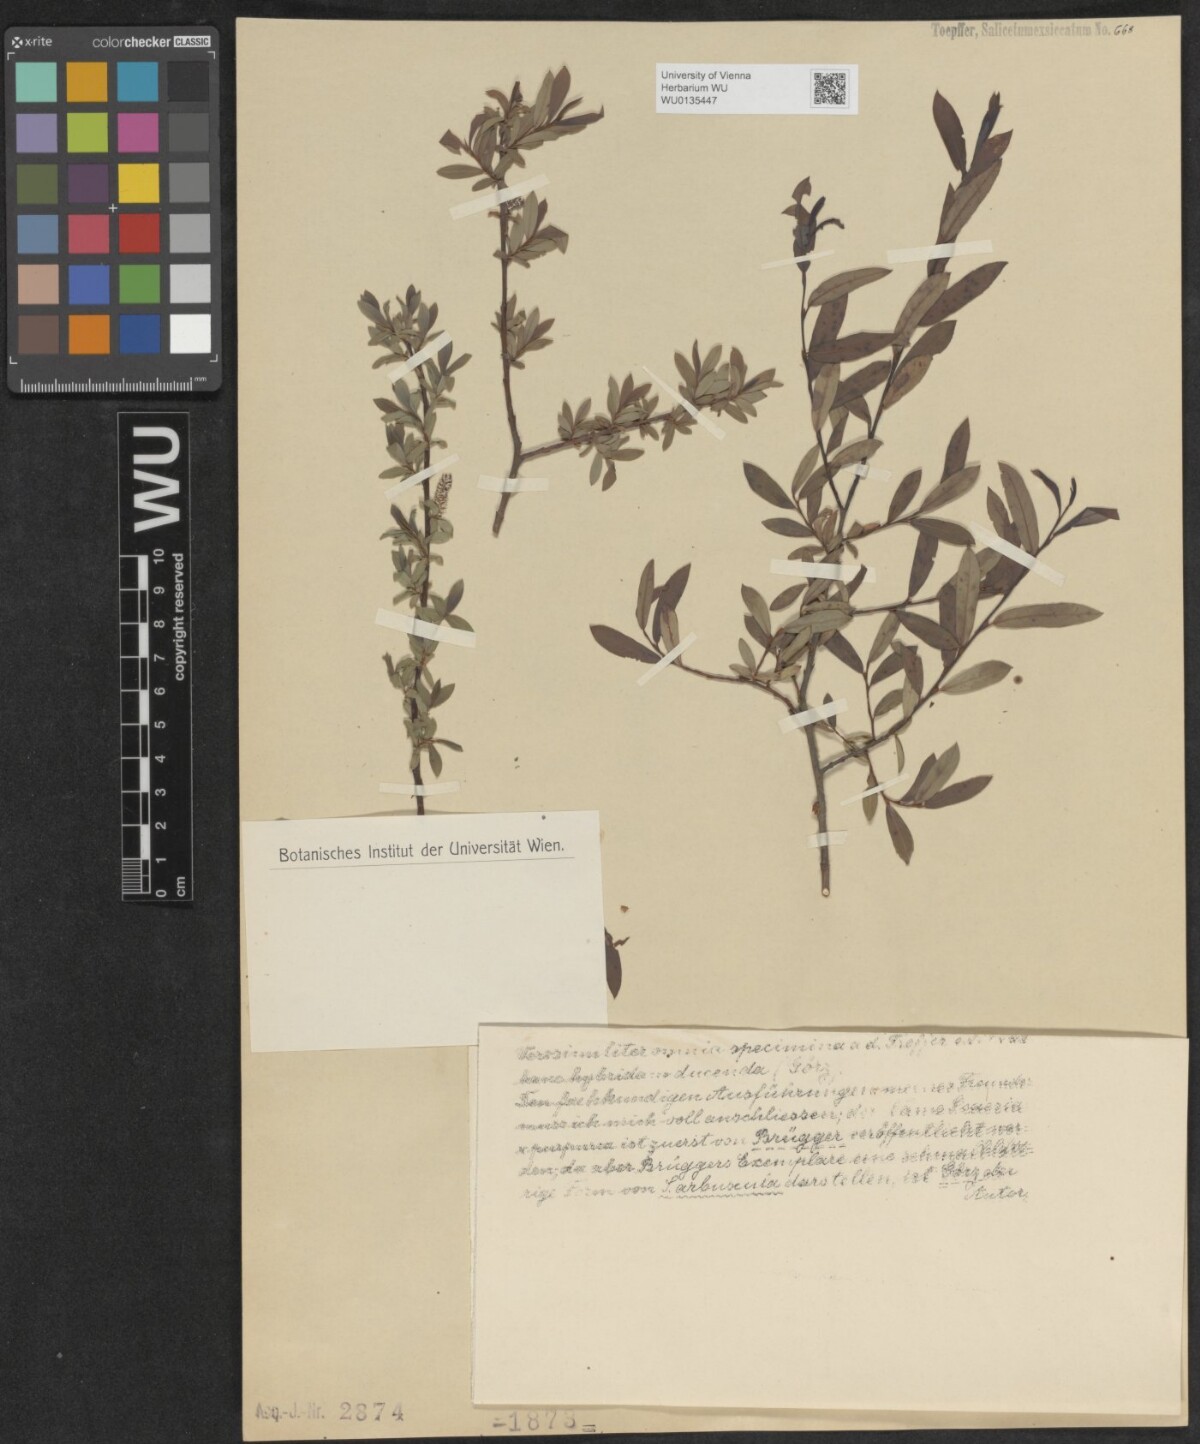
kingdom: Plantae
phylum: Tracheophyta
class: Magnoliopsida
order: Malpighiales
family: Salicaceae
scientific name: Salicaceae
